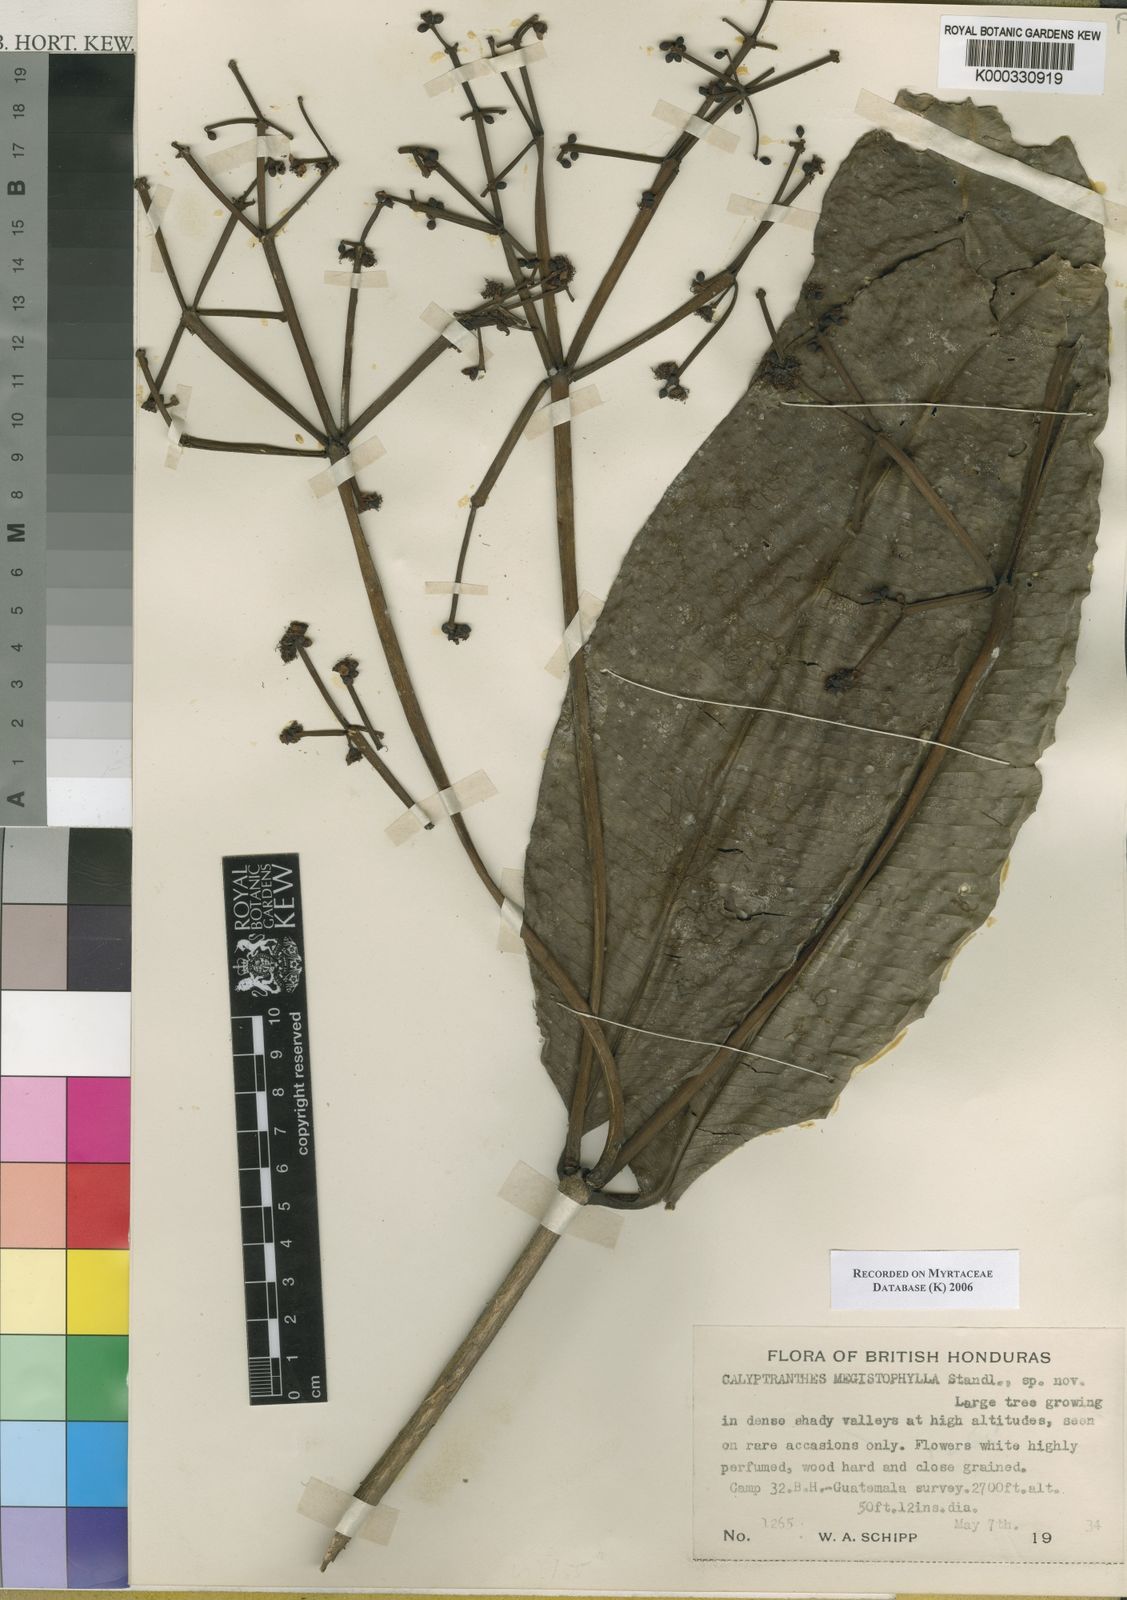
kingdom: Plantae
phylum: Tracheophyta
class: Magnoliopsida
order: Myrtales
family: Myrtaceae
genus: Myrcia
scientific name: Myrcia megistophylla
